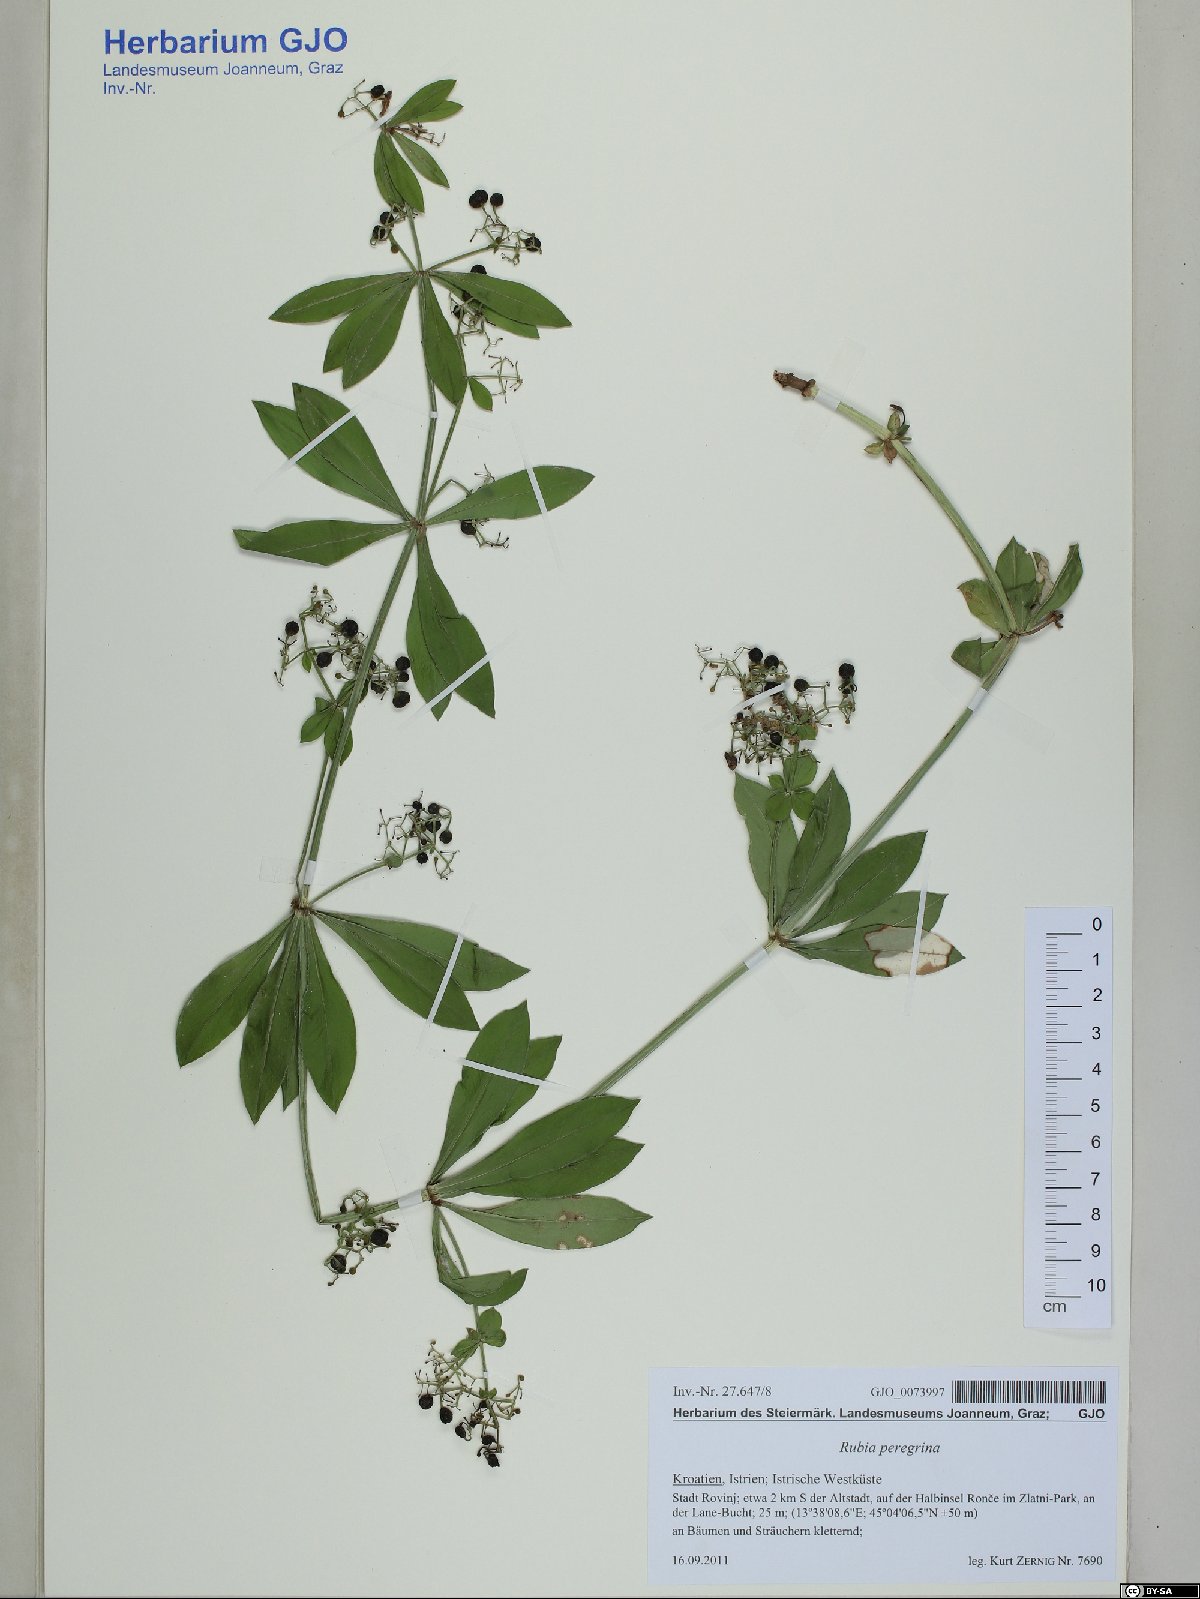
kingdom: Plantae
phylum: Tracheophyta
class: Magnoliopsida
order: Gentianales
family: Rubiaceae
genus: Rubia
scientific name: Rubia peregrina
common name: Wild madder
